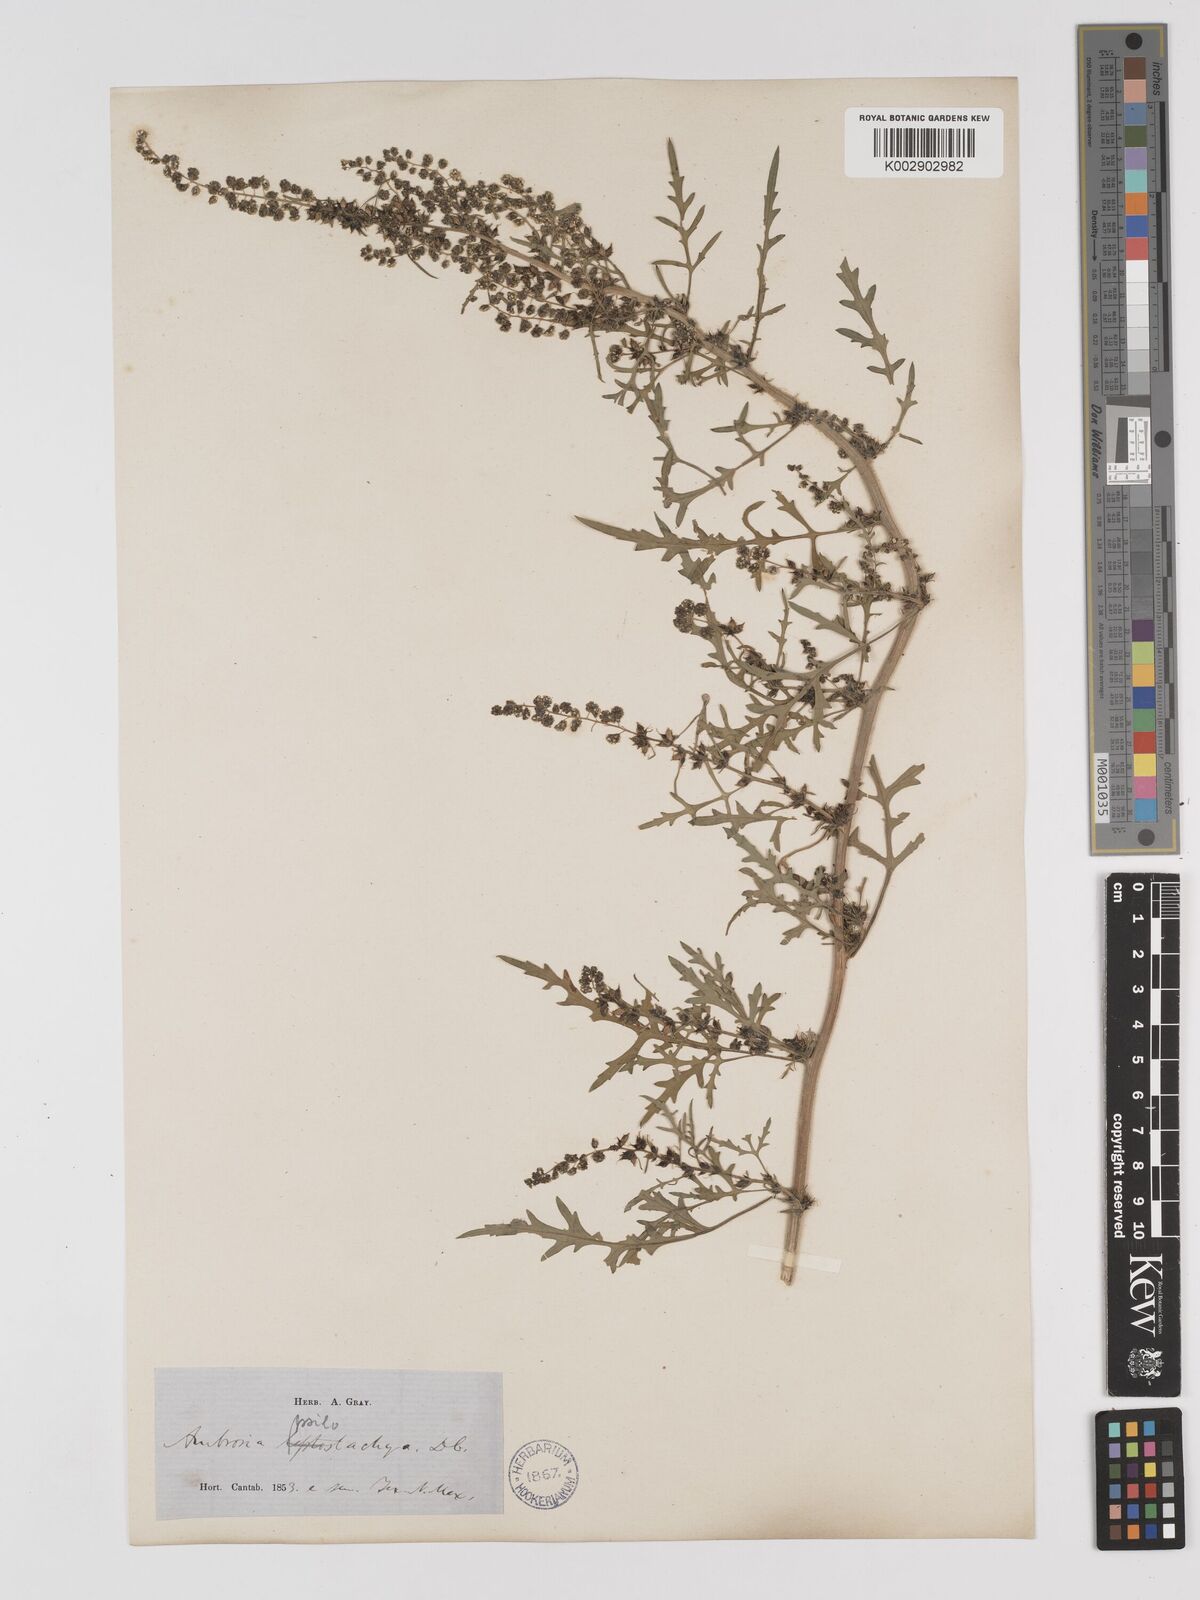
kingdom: Plantae
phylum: Tracheophyta
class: Magnoliopsida
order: Asterales
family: Asteraceae
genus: Ambrosia
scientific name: Ambrosia psilostachya
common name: Perennial ragweed
